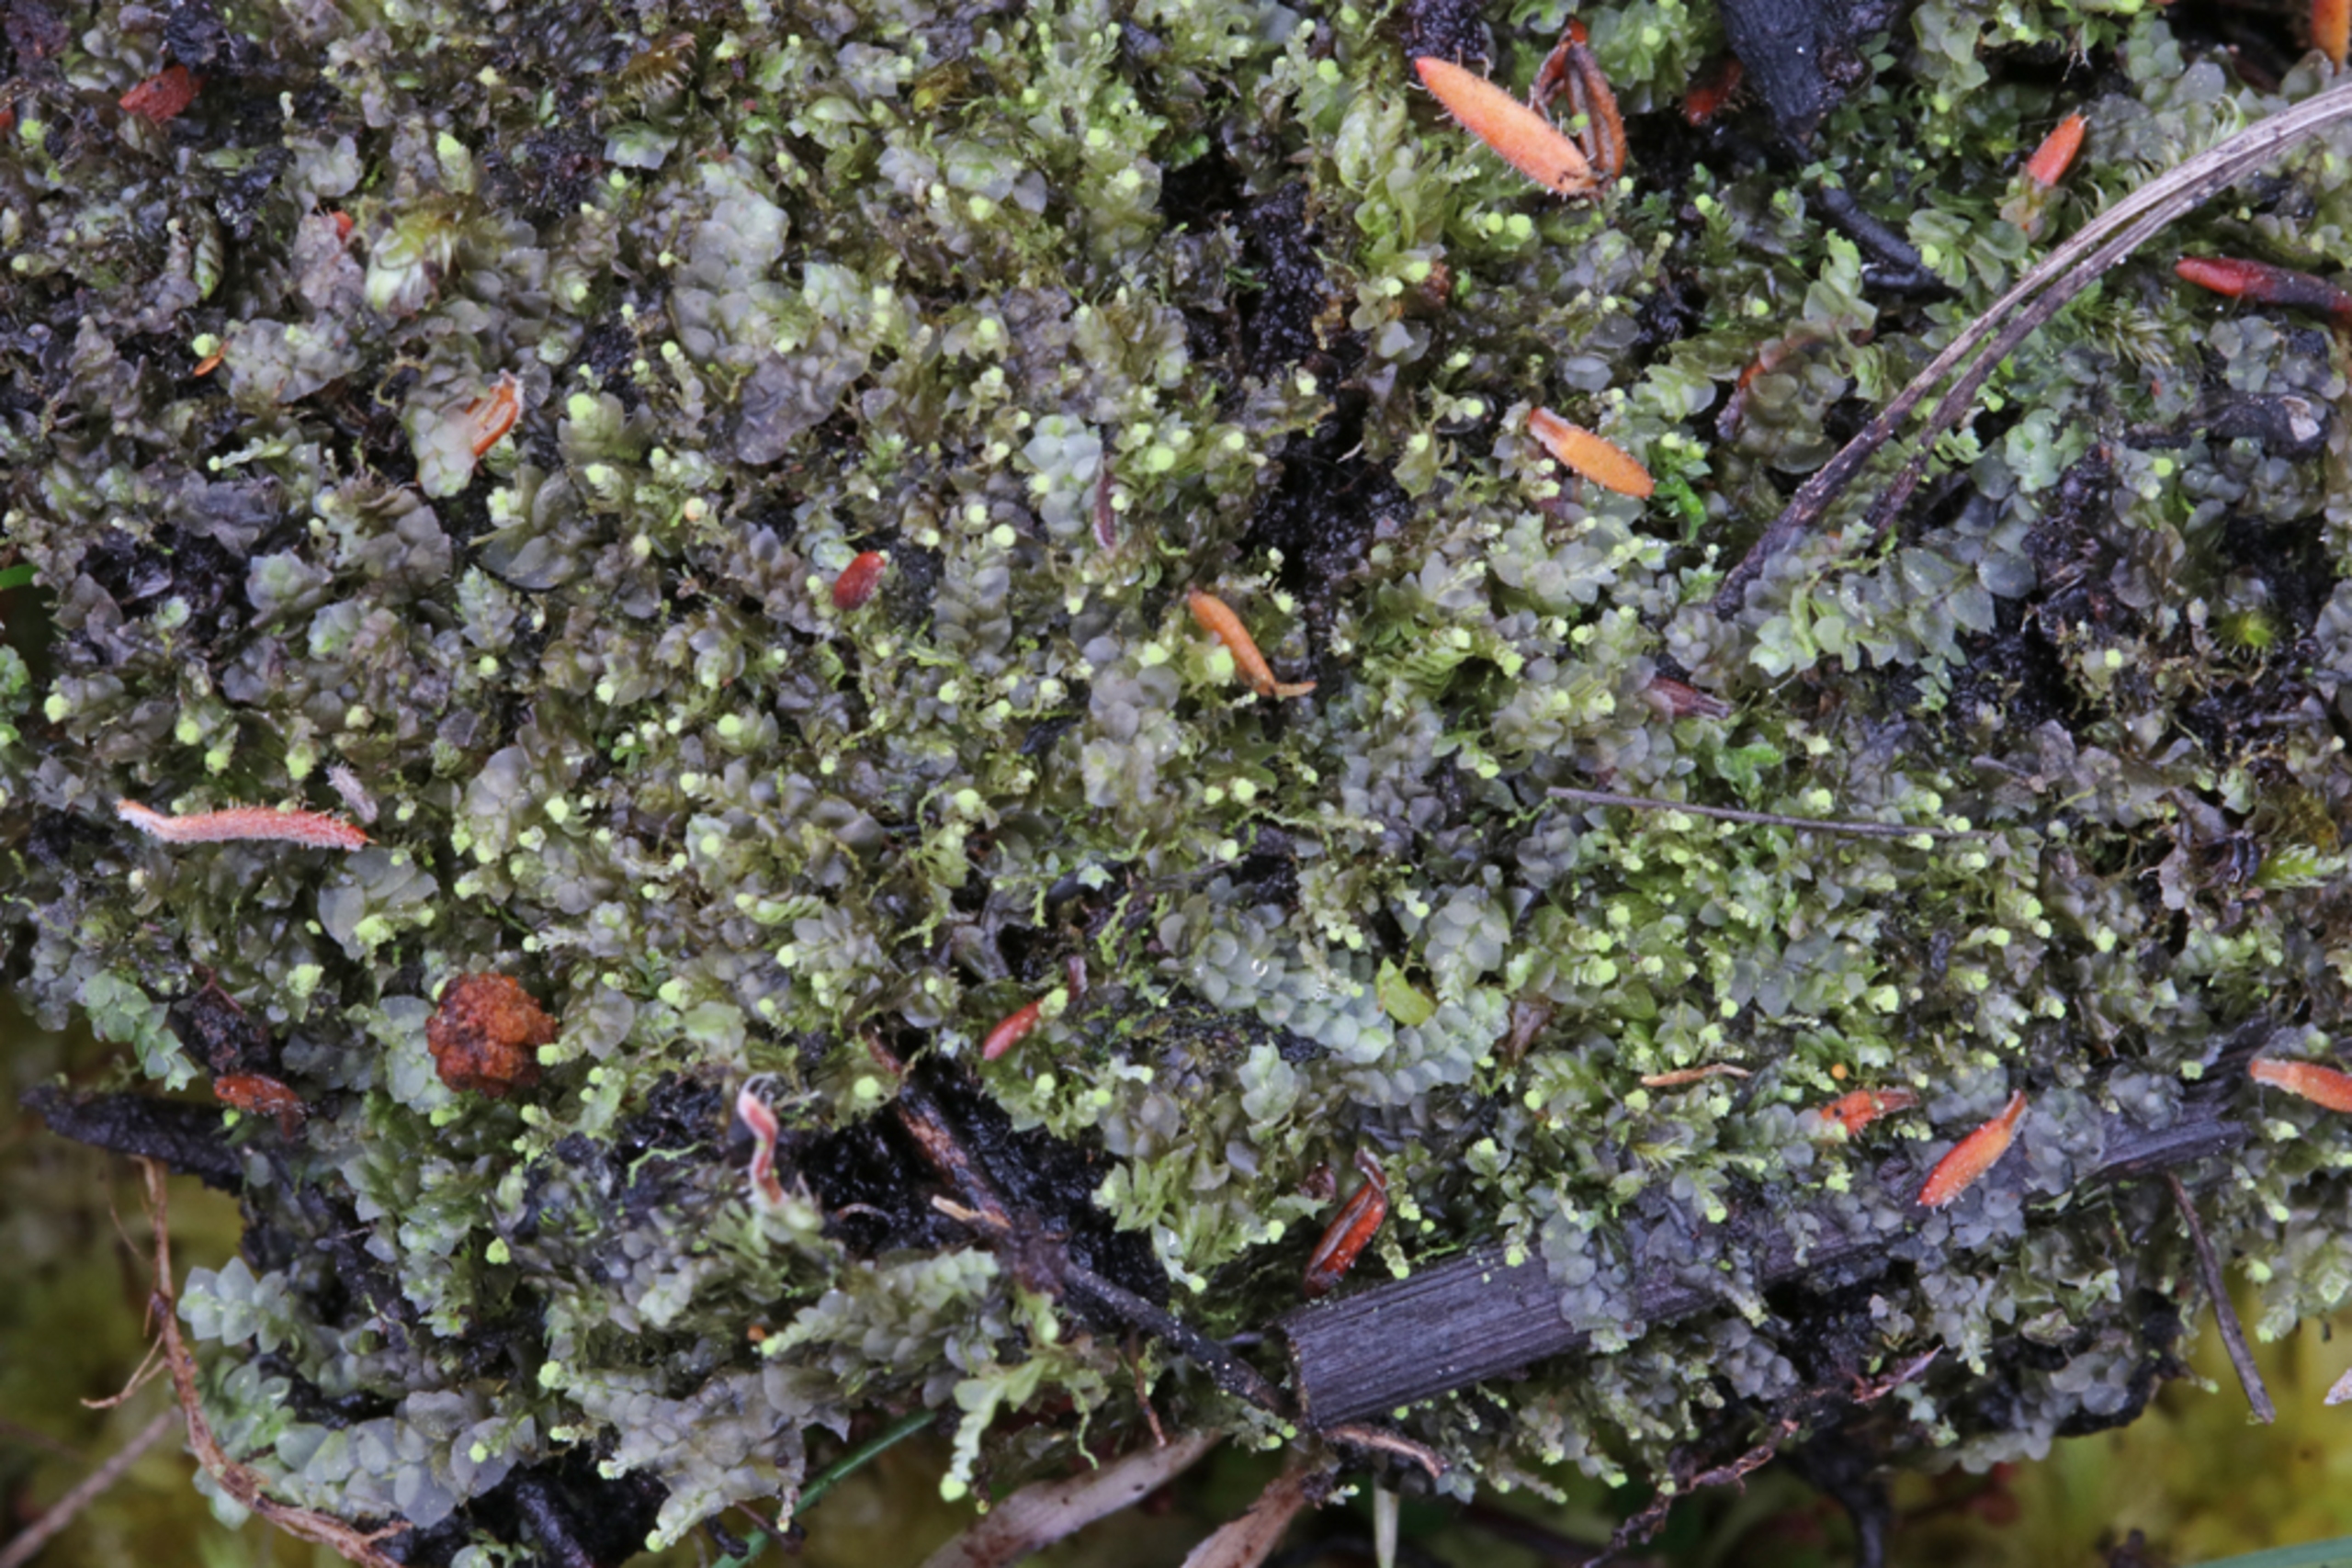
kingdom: Plantae
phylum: Marchantiophyta
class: Jungermanniopsida
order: Jungermanniales
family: Calypogeiaceae
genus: Calypogeia
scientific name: Calypogeia fissa
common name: Tvespidset sækmos
